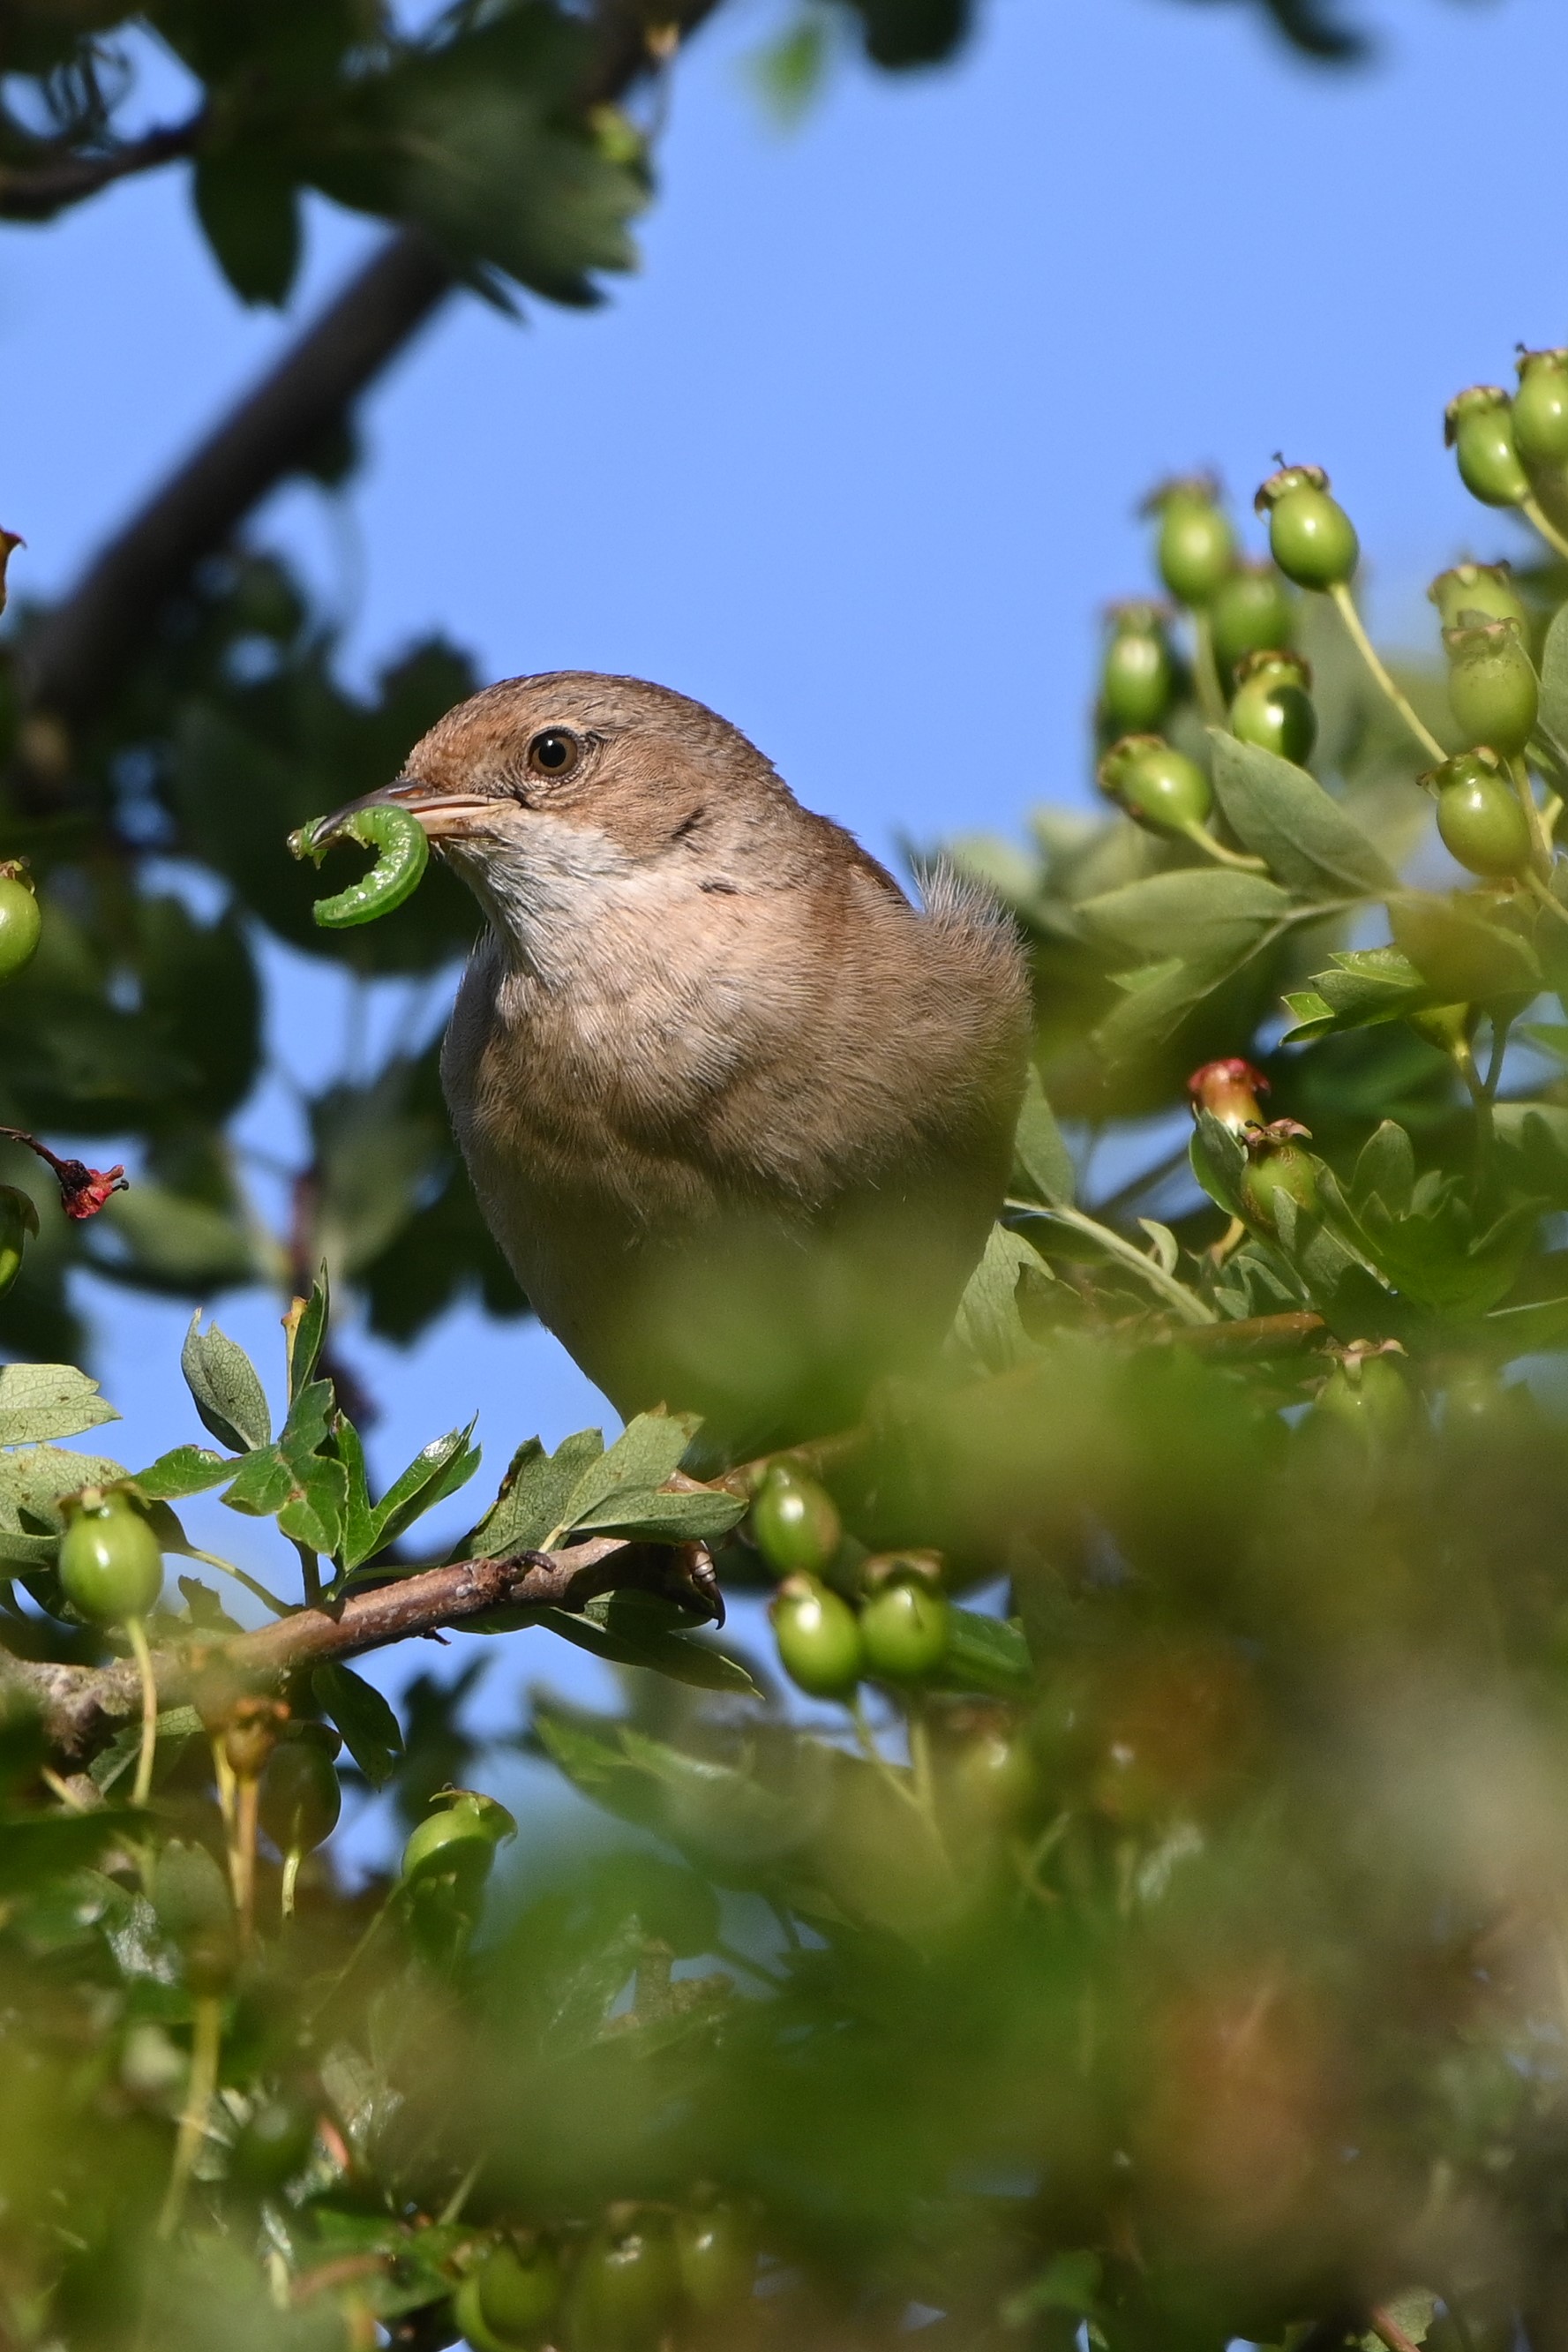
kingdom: Animalia
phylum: Chordata
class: Aves
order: Passeriformes
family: Sylviidae
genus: Sylvia
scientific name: Sylvia communis
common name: Tornsanger
